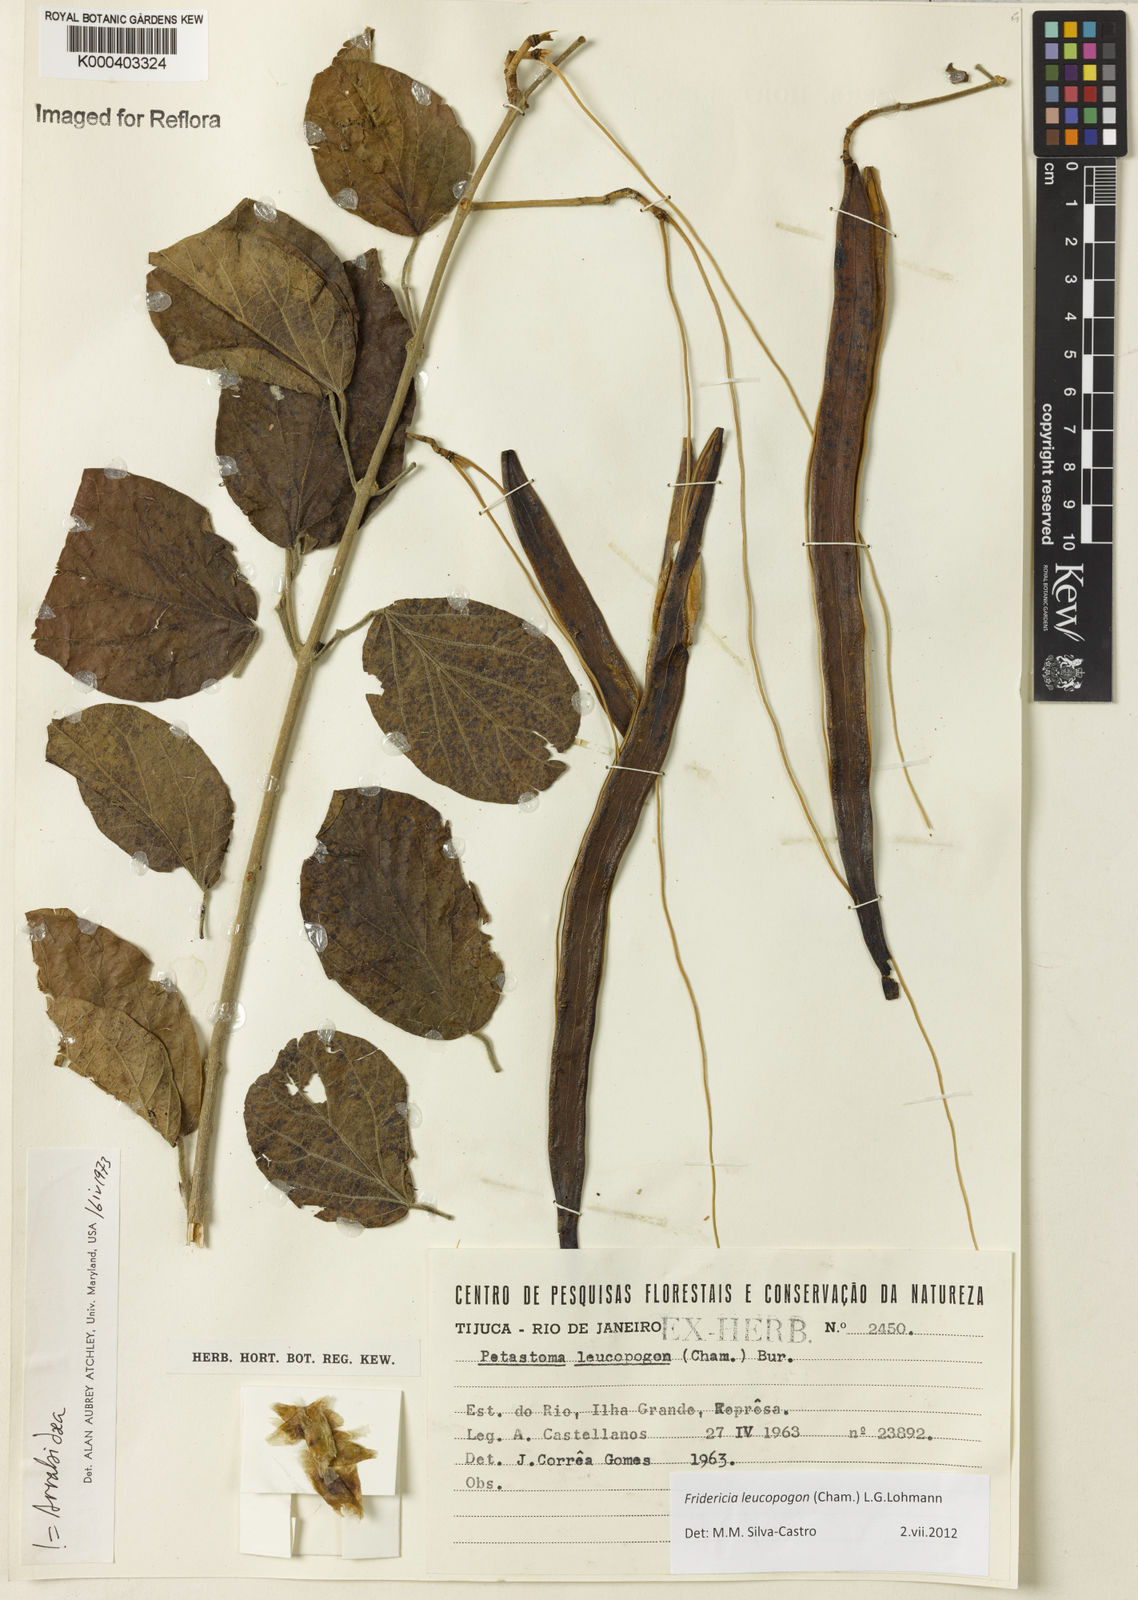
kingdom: Plantae
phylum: Tracheophyta
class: Magnoliopsida
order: Lamiales
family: Bignoniaceae
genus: Fridericia
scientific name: Fridericia leucopogon
